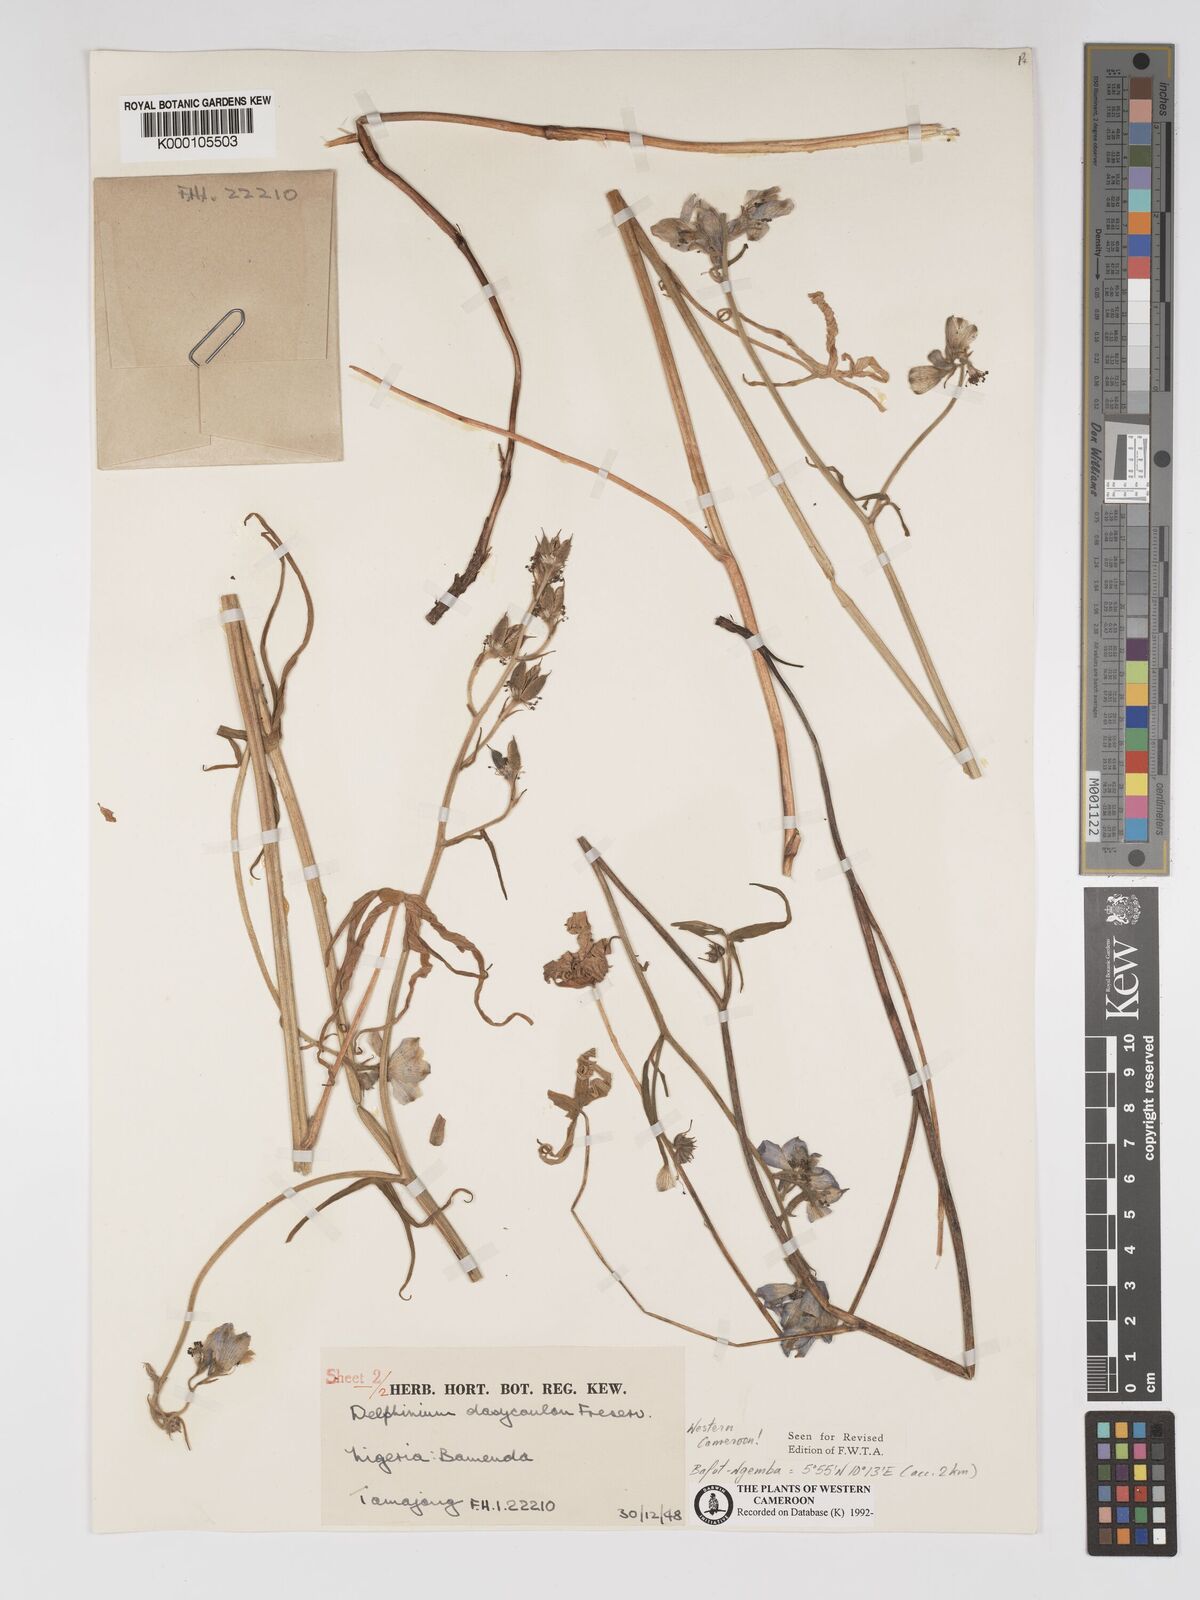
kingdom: Plantae
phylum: Tracheophyta
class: Magnoliopsida
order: Ranunculales
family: Ranunculaceae
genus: Delphinium
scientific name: Delphinium dasycaulon
